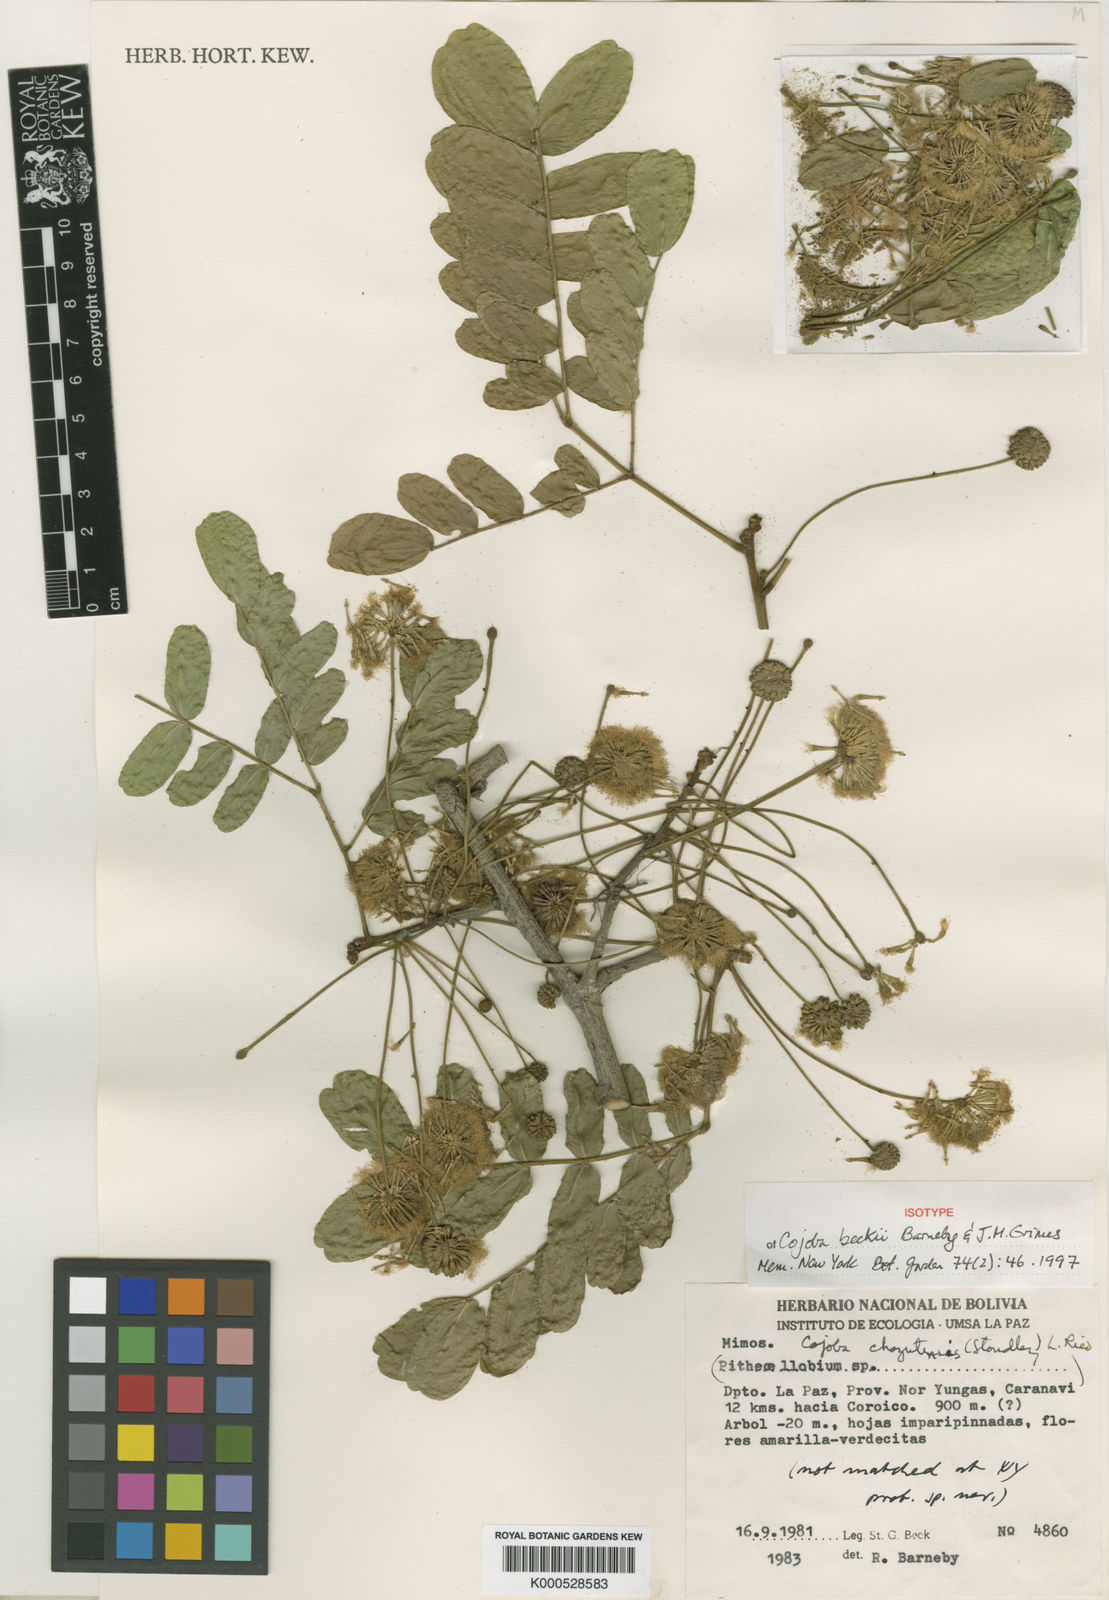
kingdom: Plantae
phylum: Tracheophyta
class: Magnoliopsida
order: Fabales
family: Fabaceae
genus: Cojoba
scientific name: Cojoba beckii
